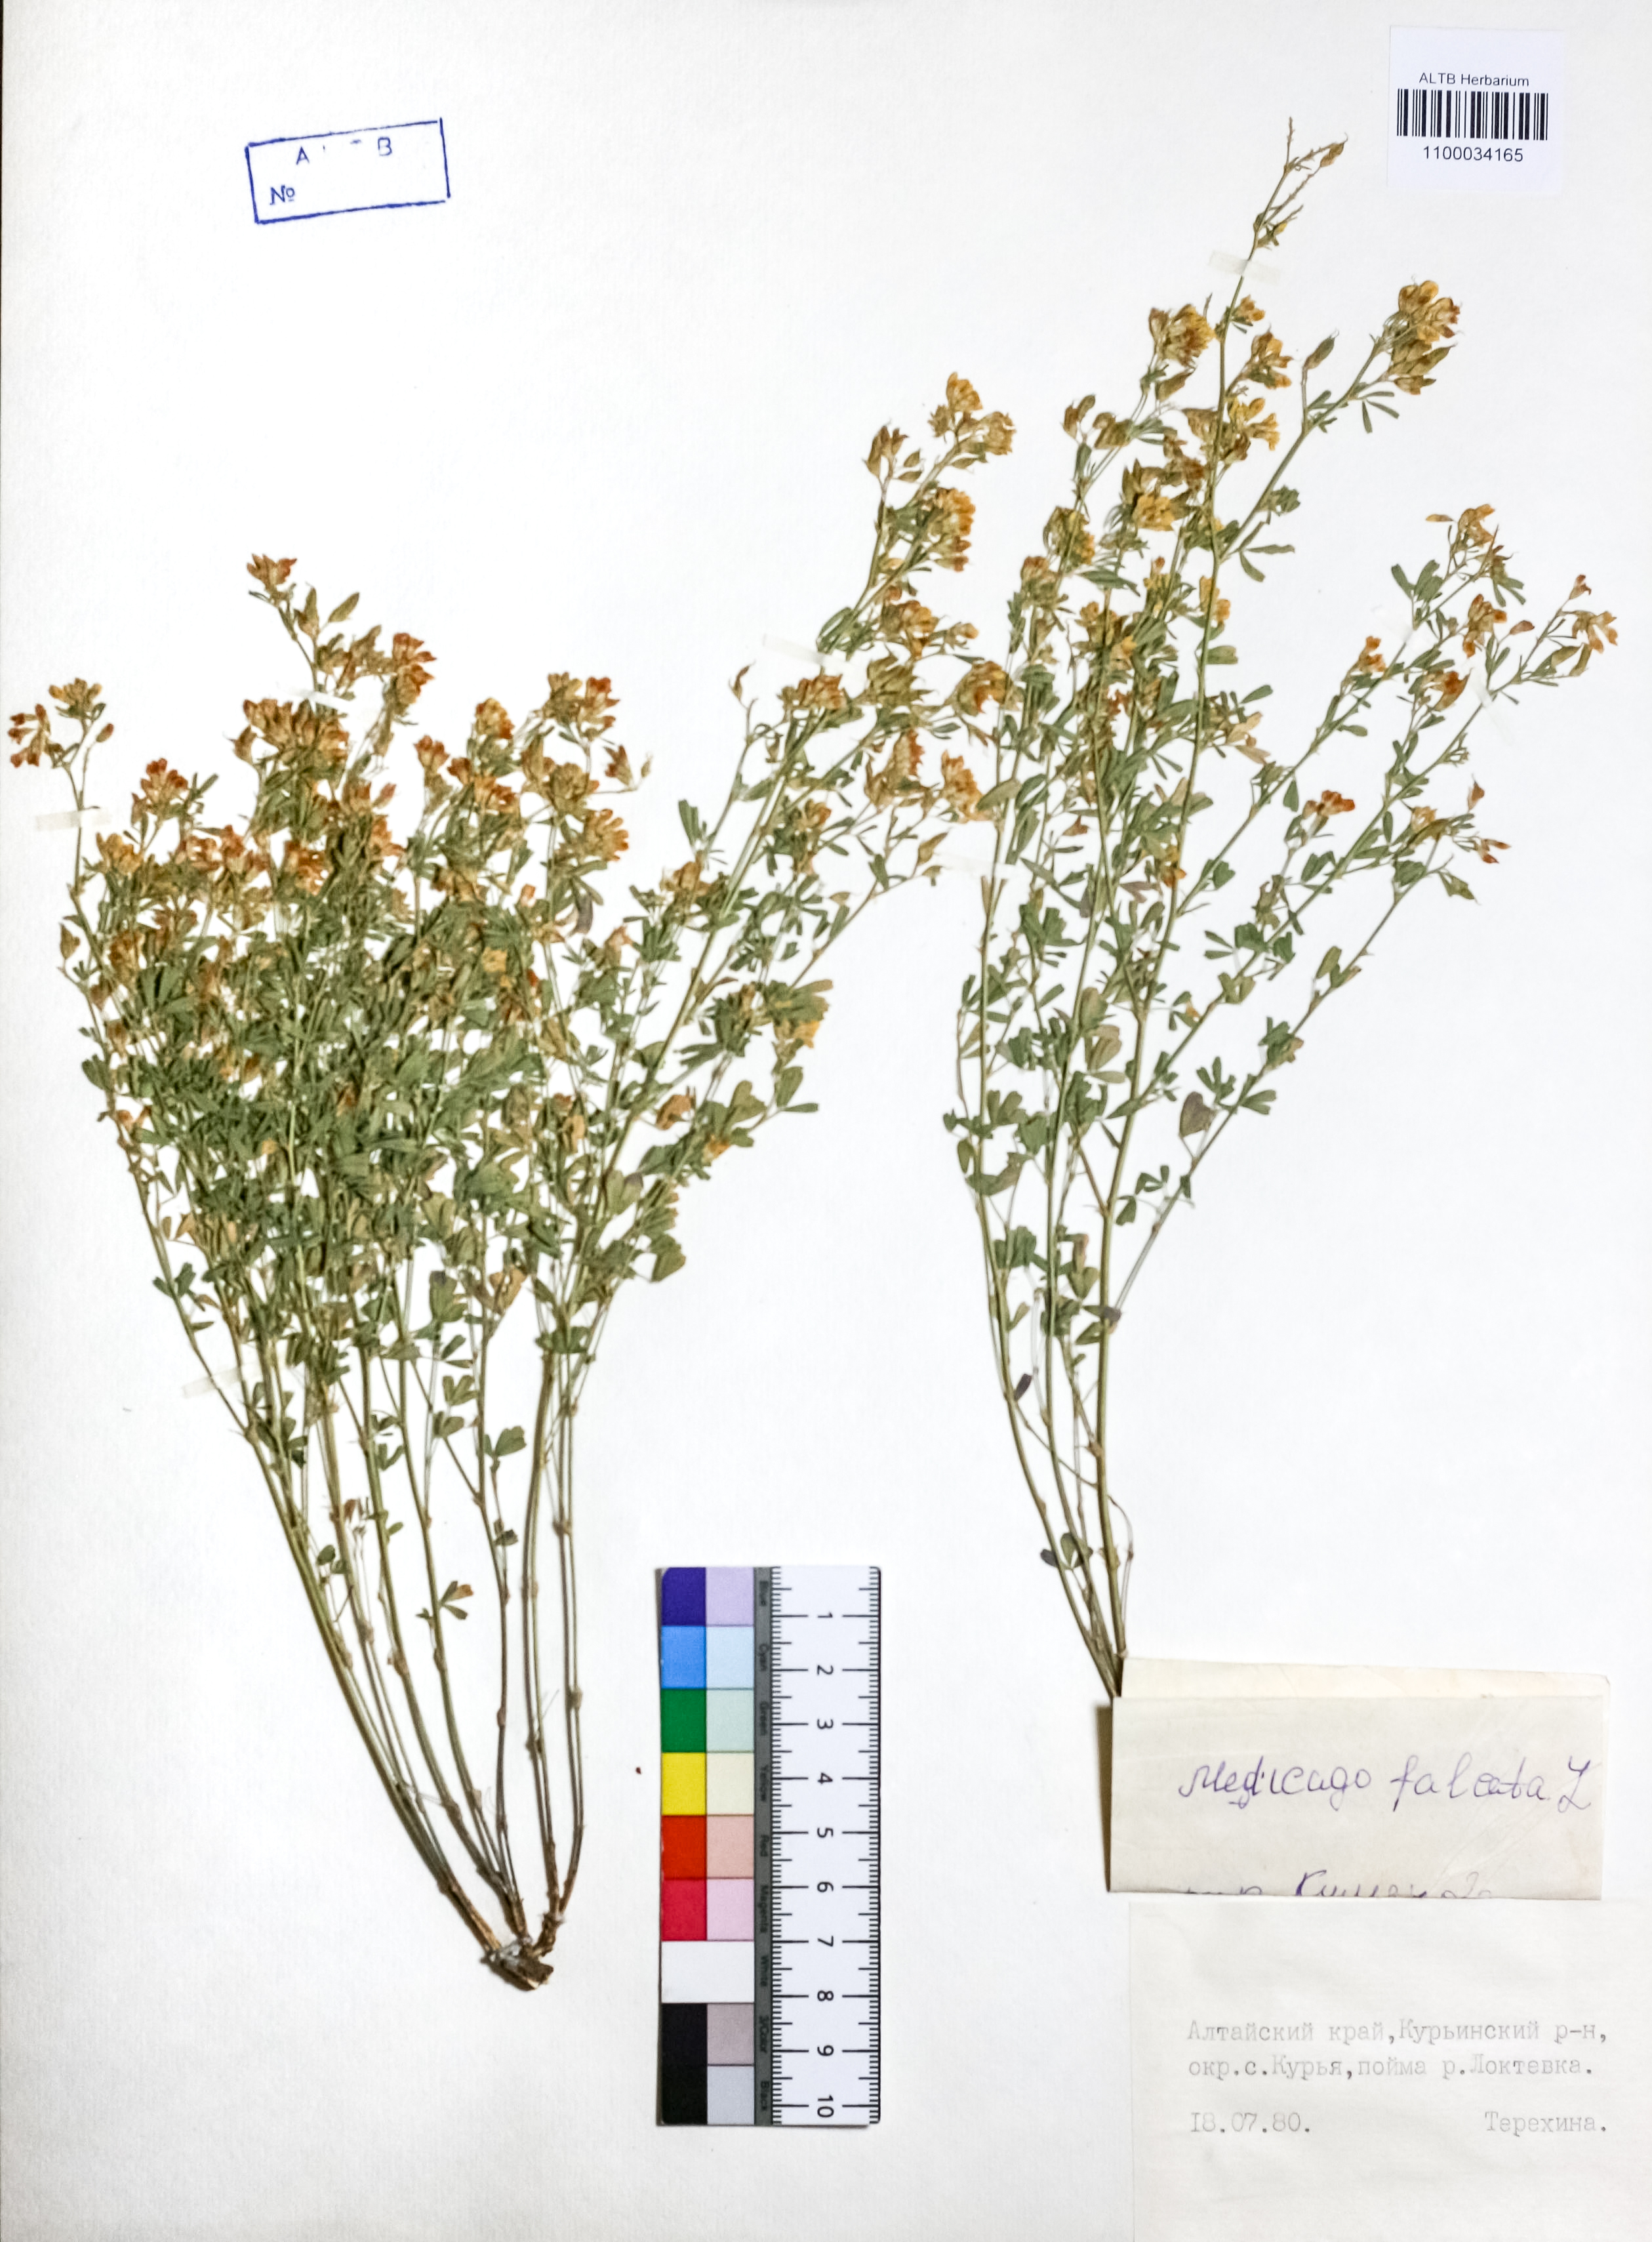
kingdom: Plantae
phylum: Tracheophyta
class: Magnoliopsida
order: Fabales
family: Fabaceae
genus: Medicago
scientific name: Medicago falcata
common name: Sickle medick
